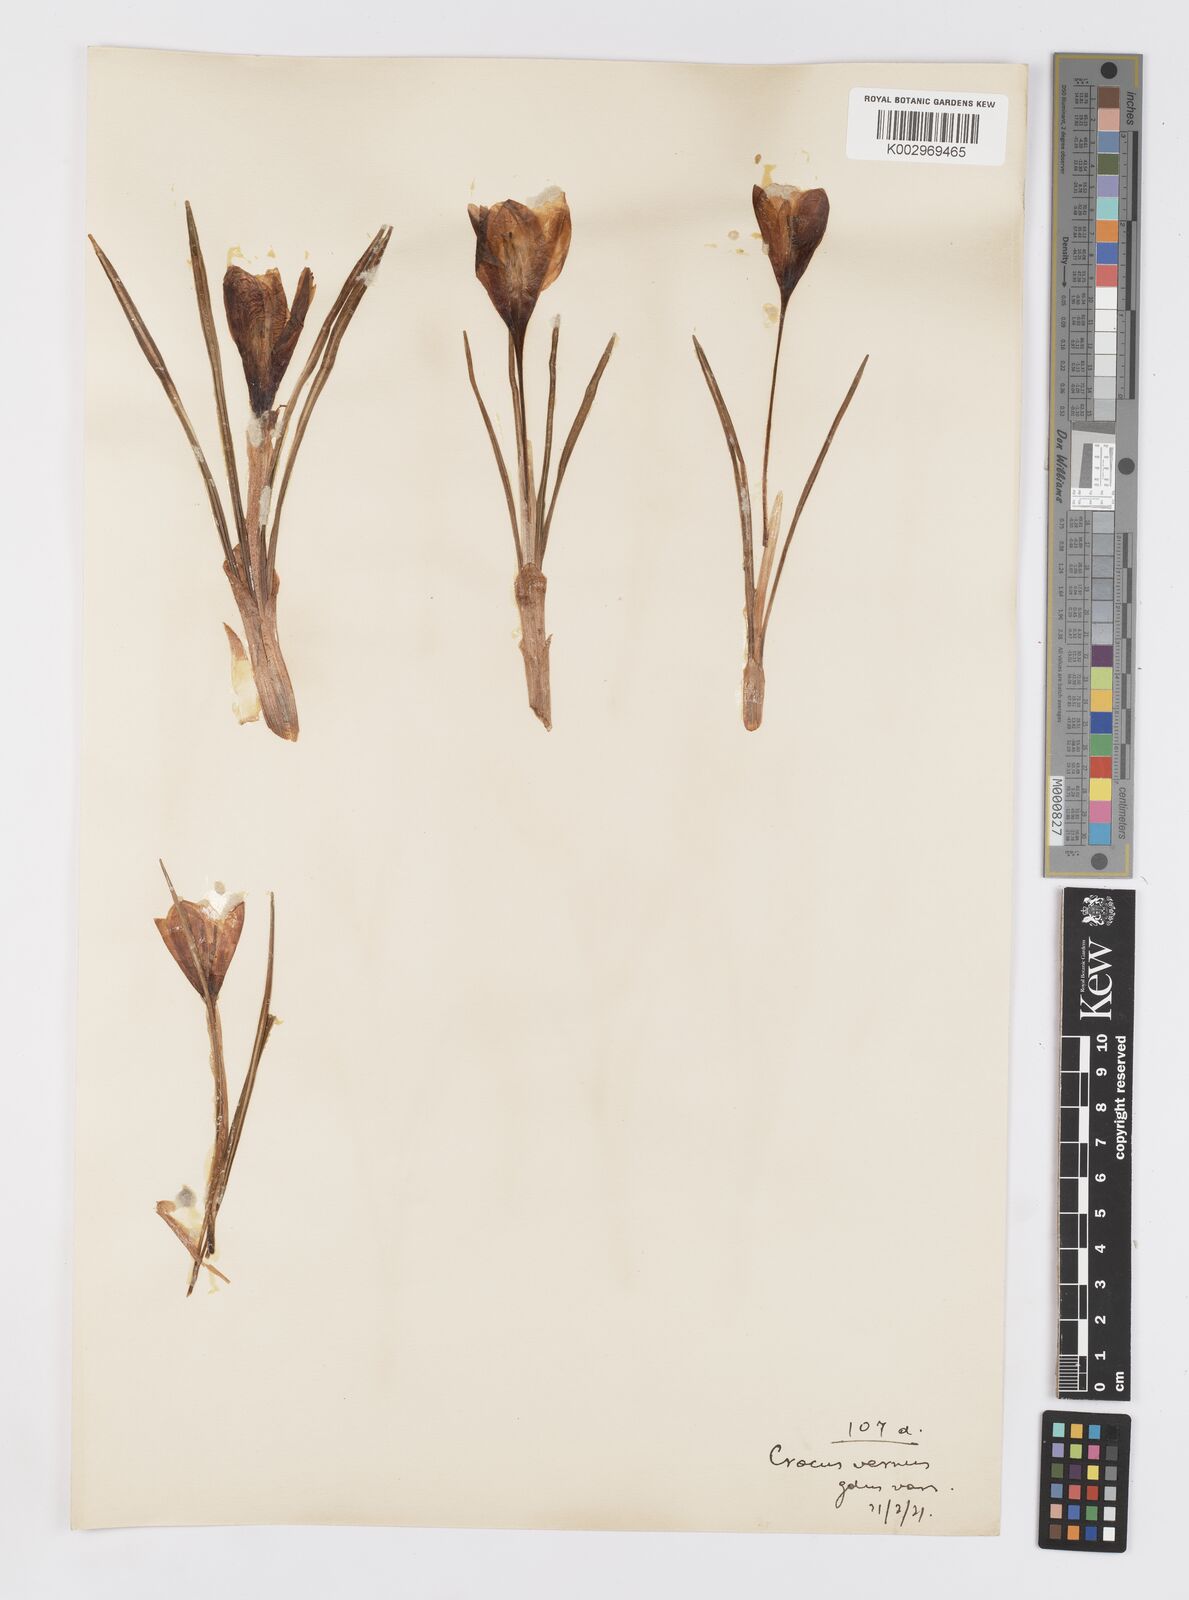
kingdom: Plantae
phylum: Tracheophyta
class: Liliopsida
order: Asparagales
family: Iridaceae
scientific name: Iridaceae
